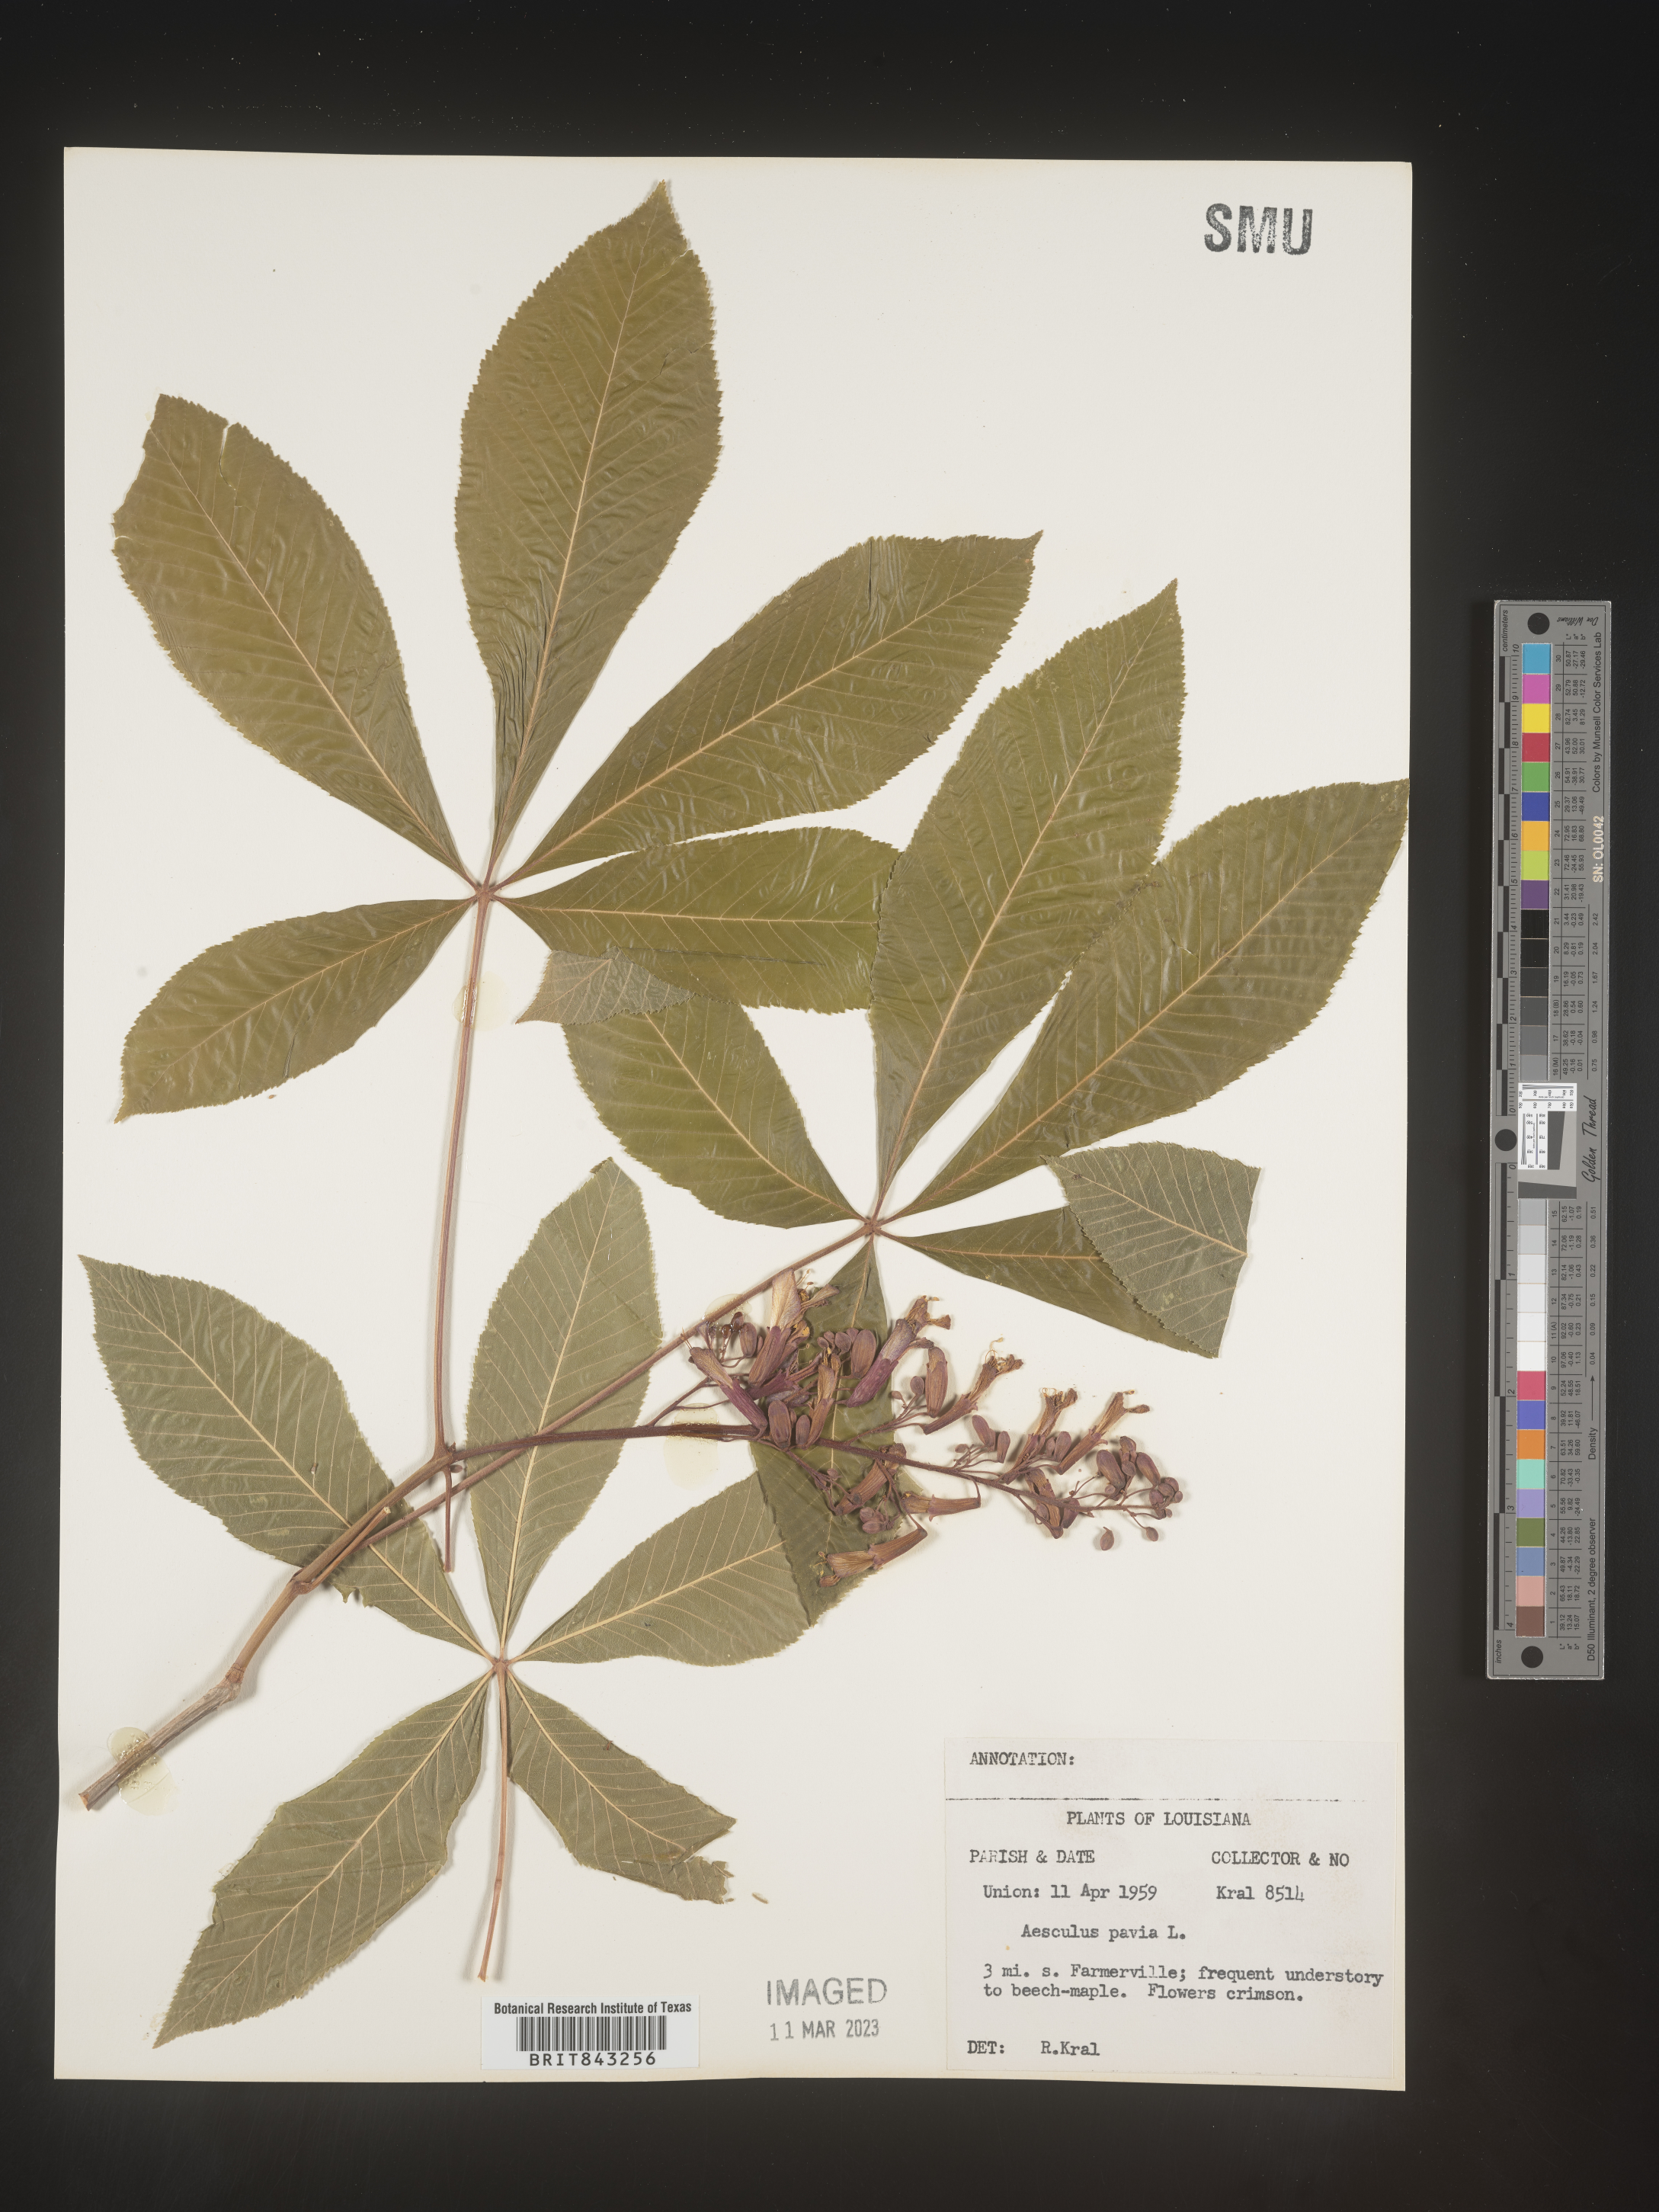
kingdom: Plantae
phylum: Tracheophyta
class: Magnoliopsida
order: Sapindales
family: Sapindaceae
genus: Aesculus
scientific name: Aesculus pavia
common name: Red buckeye
